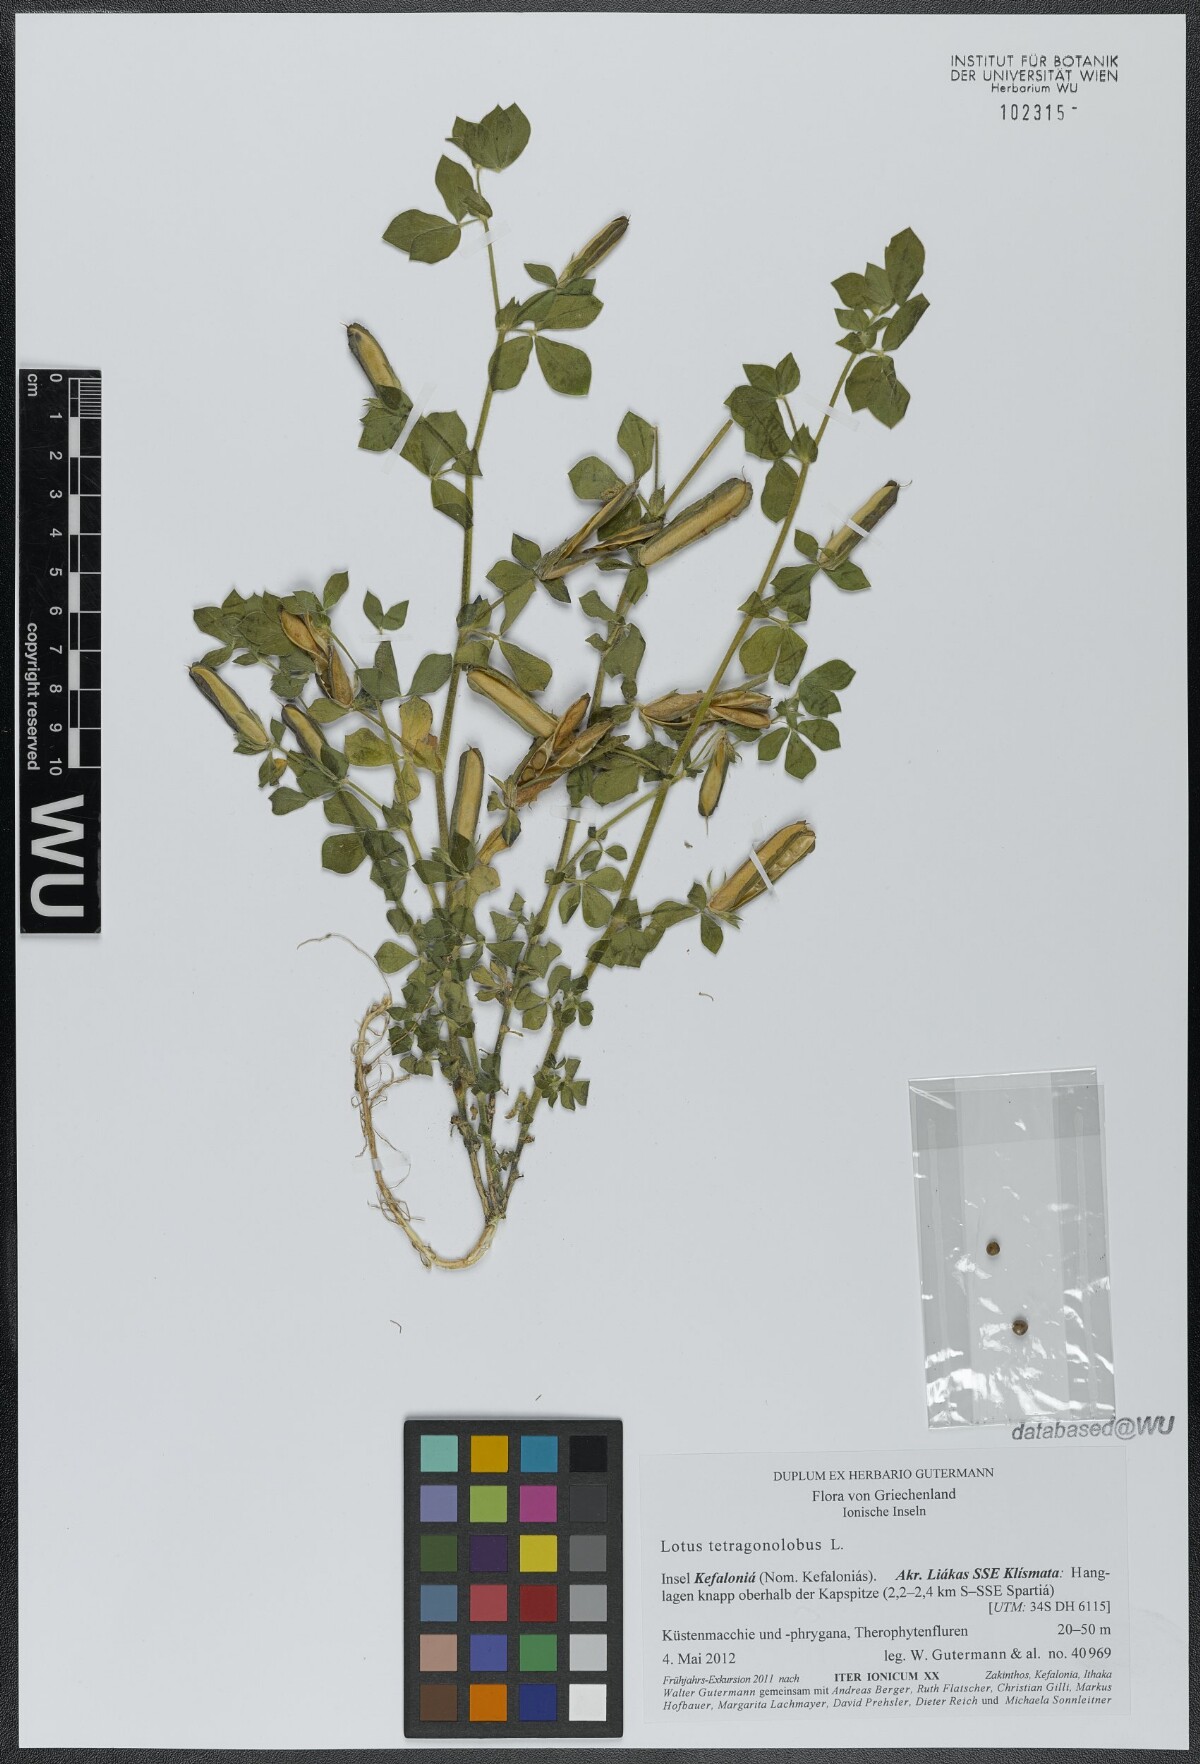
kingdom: Plantae
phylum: Tracheophyta
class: Magnoliopsida
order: Fabales
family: Fabaceae
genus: Lotus
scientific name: Lotus tetragonolobus
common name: Asparagus-pea
